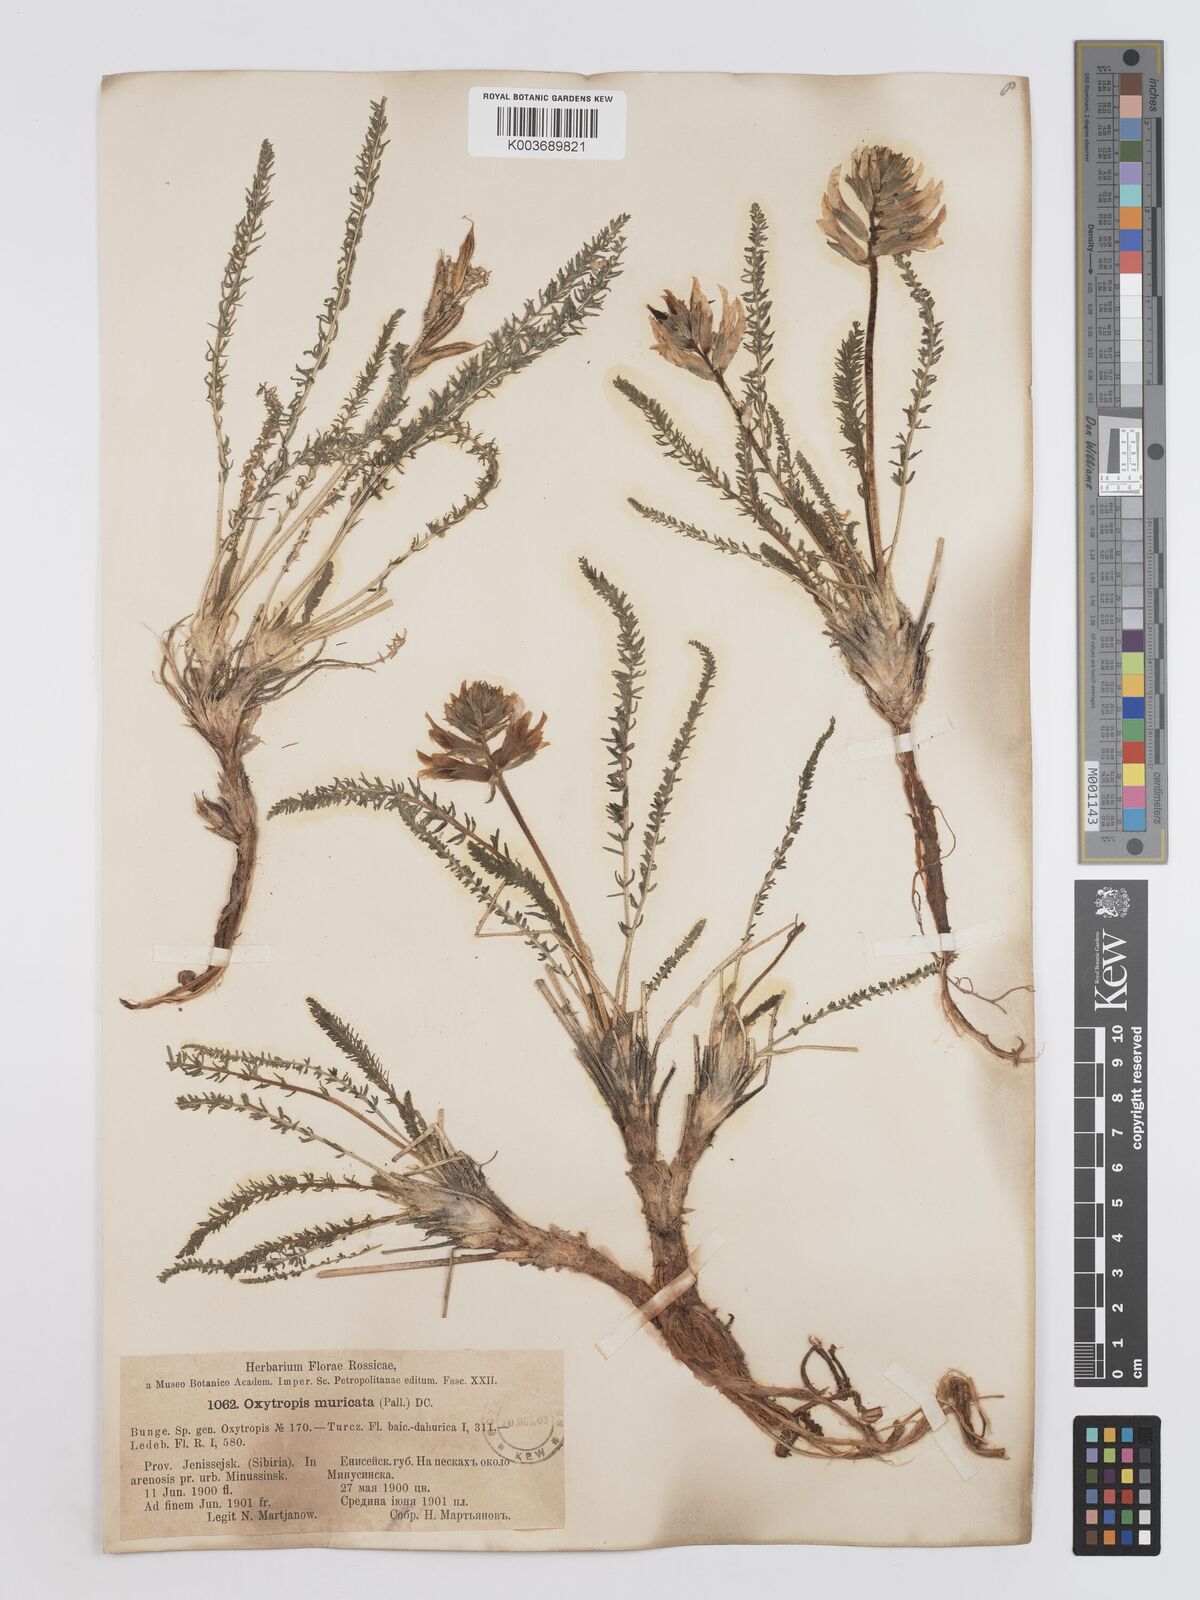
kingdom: Plantae
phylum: Tracheophyta
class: Magnoliopsida
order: Fabales
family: Fabaceae
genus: Oxytropis
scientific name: Oxytropis muricata
